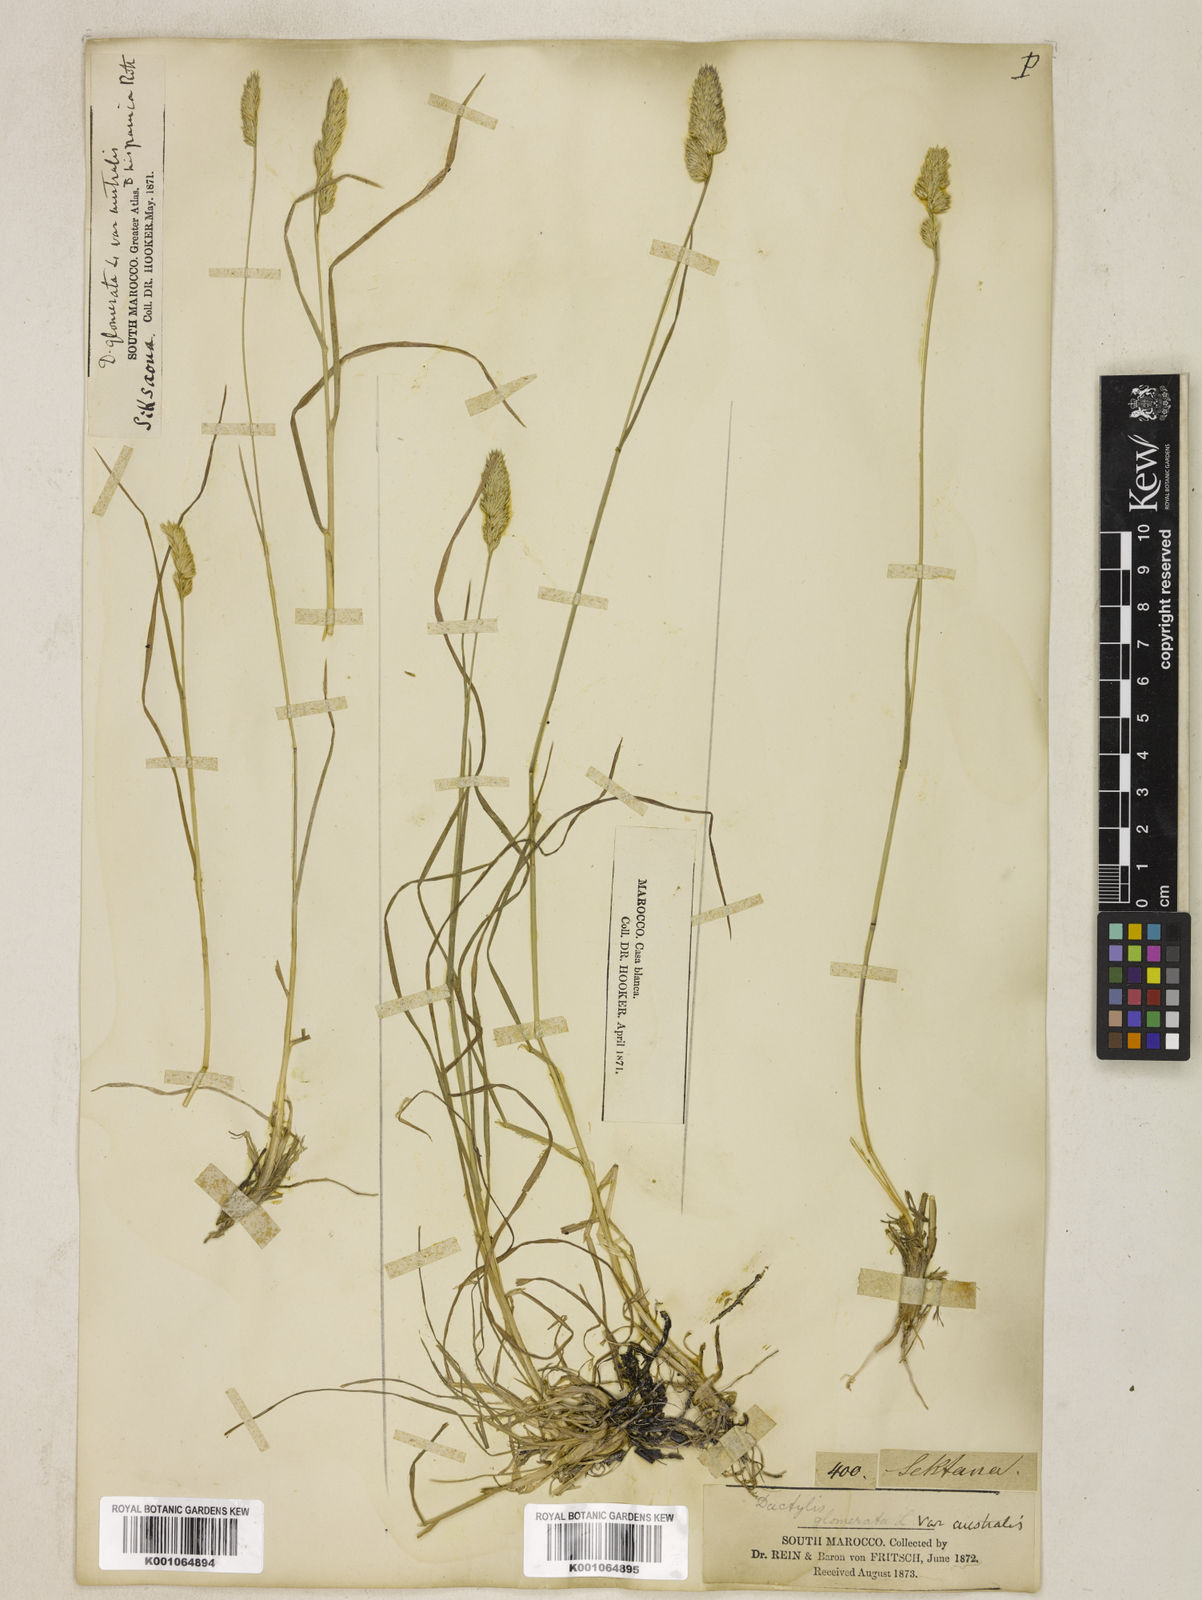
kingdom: Plantae
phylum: Tracheophyta
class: Liliopsida
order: Poales
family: Poaceae
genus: Dactylis
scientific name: Dactylis glomerata
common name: Orchardgrass
